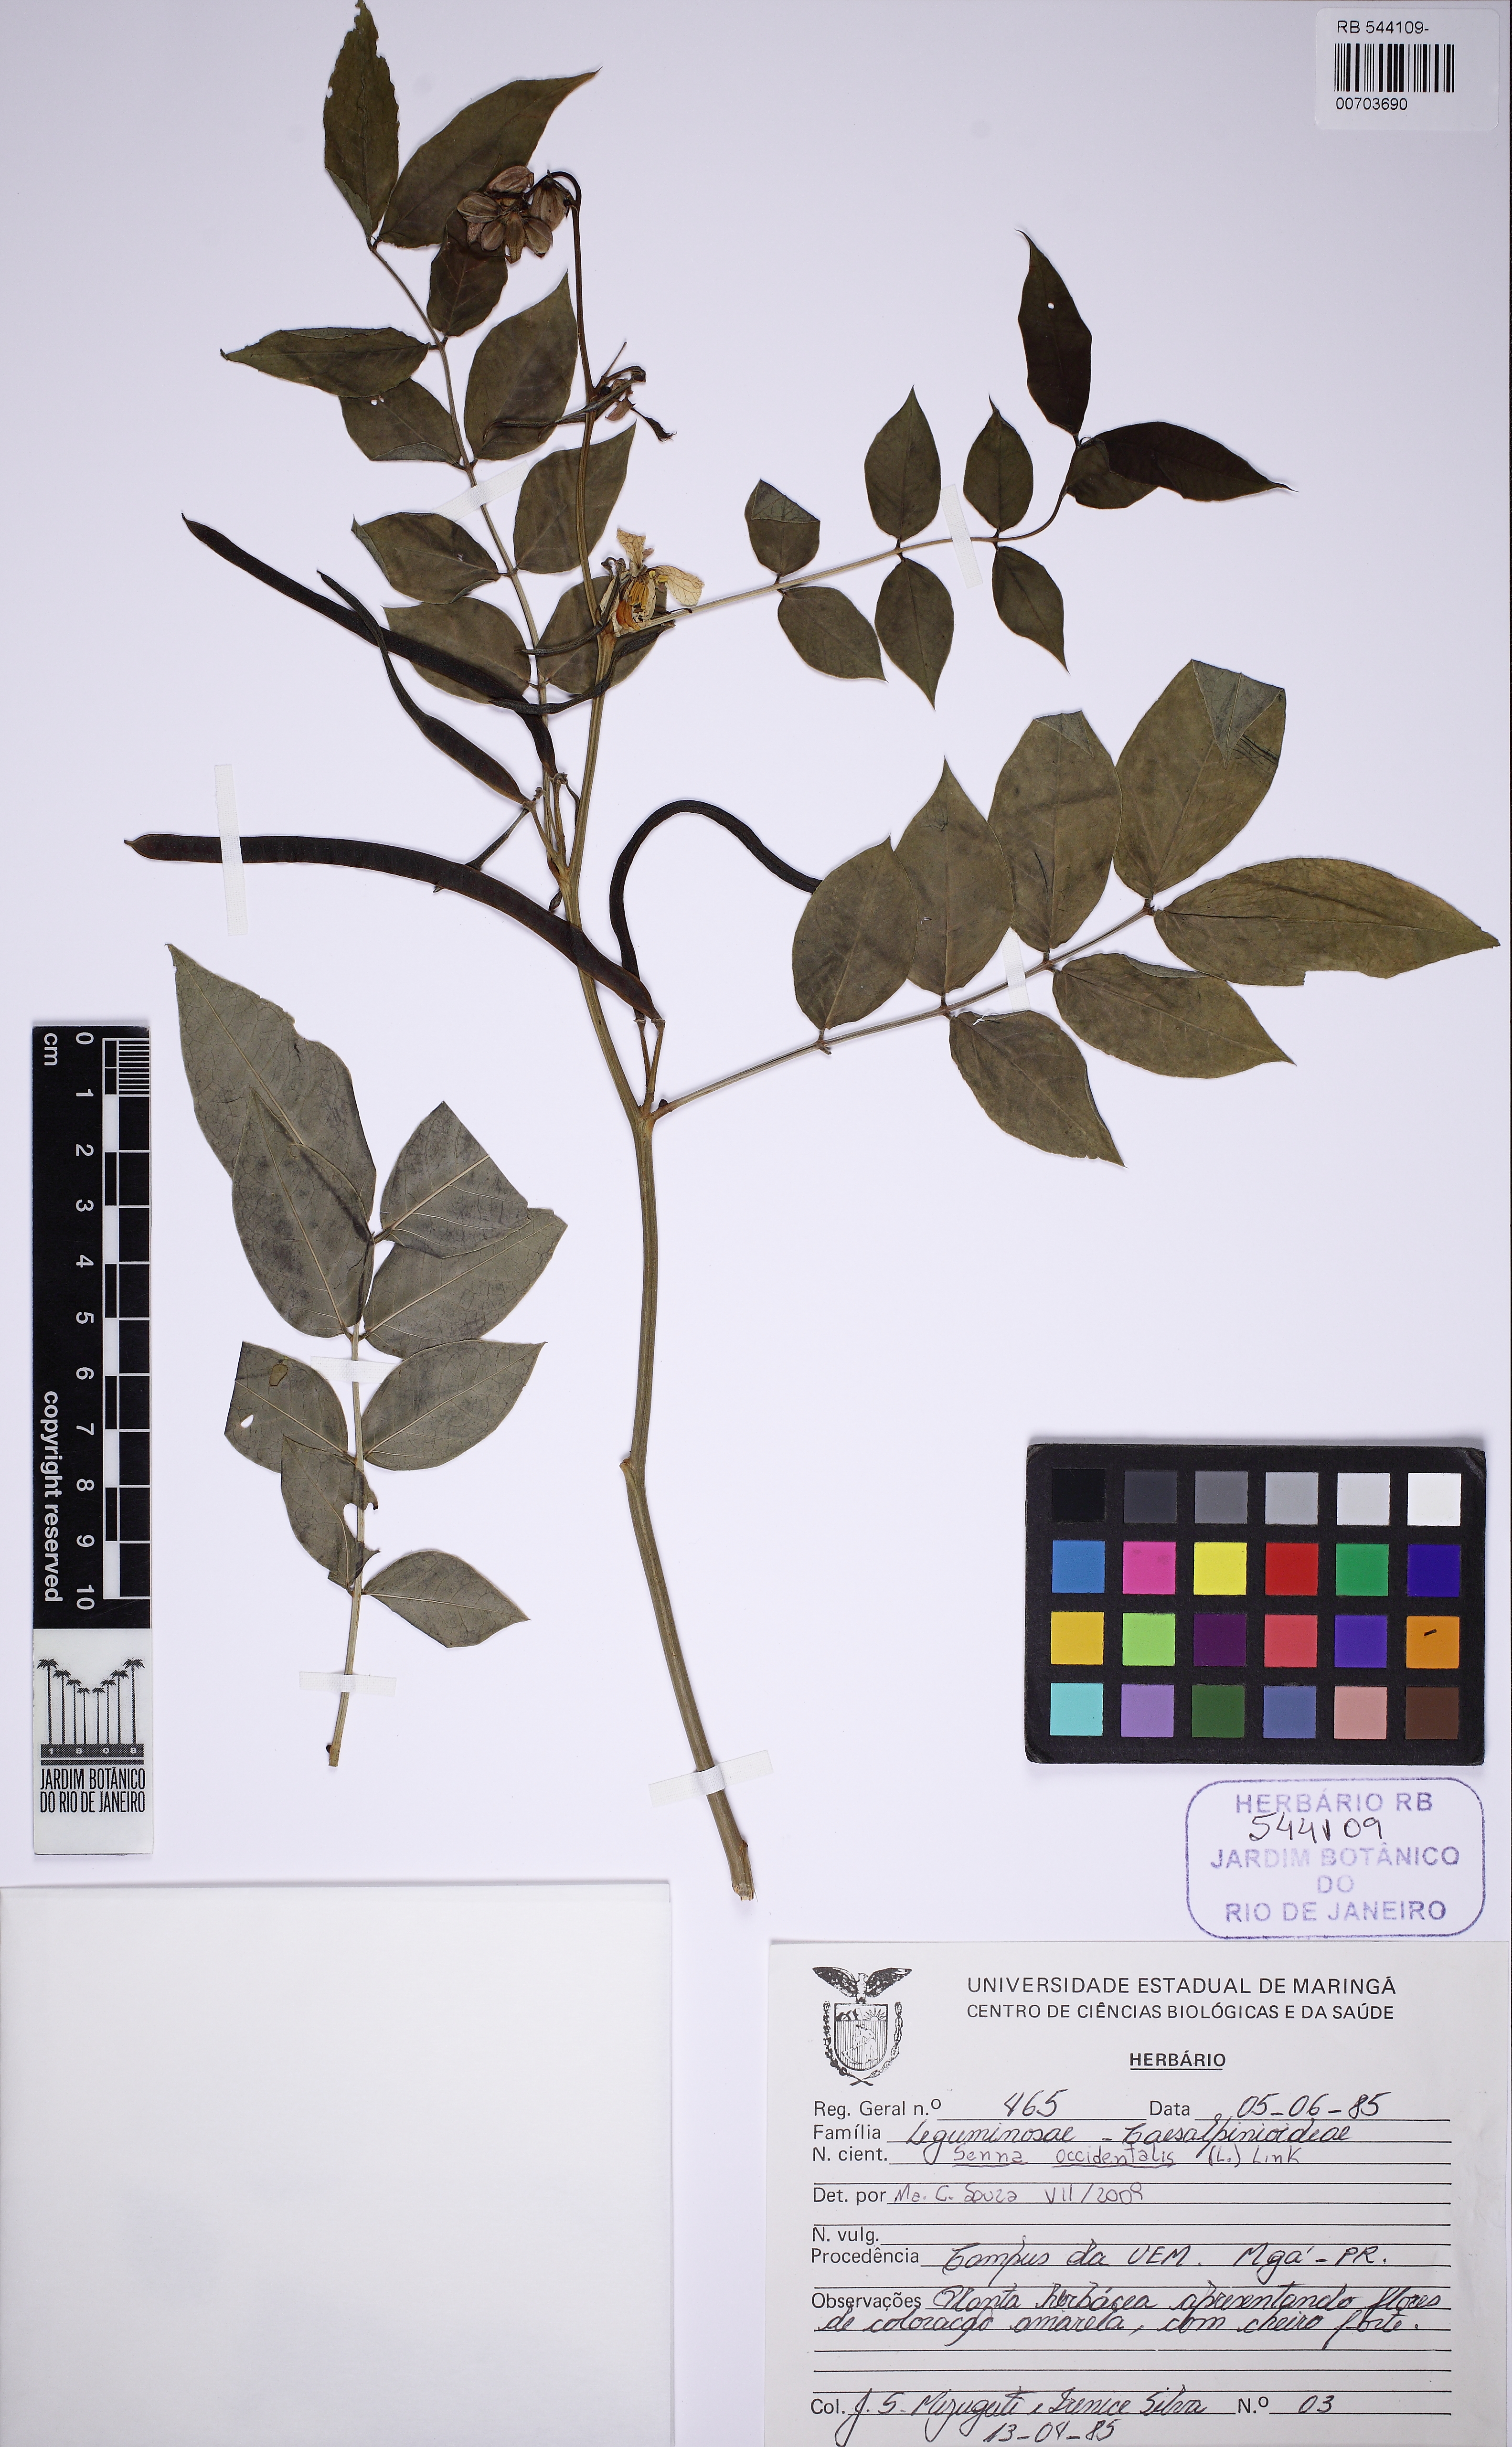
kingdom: Plantae
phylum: Tracheophyta
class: Magnoliopsida
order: Fabales
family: Fabaceae
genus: Senna
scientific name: Senna occidentalis
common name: Septicweed
